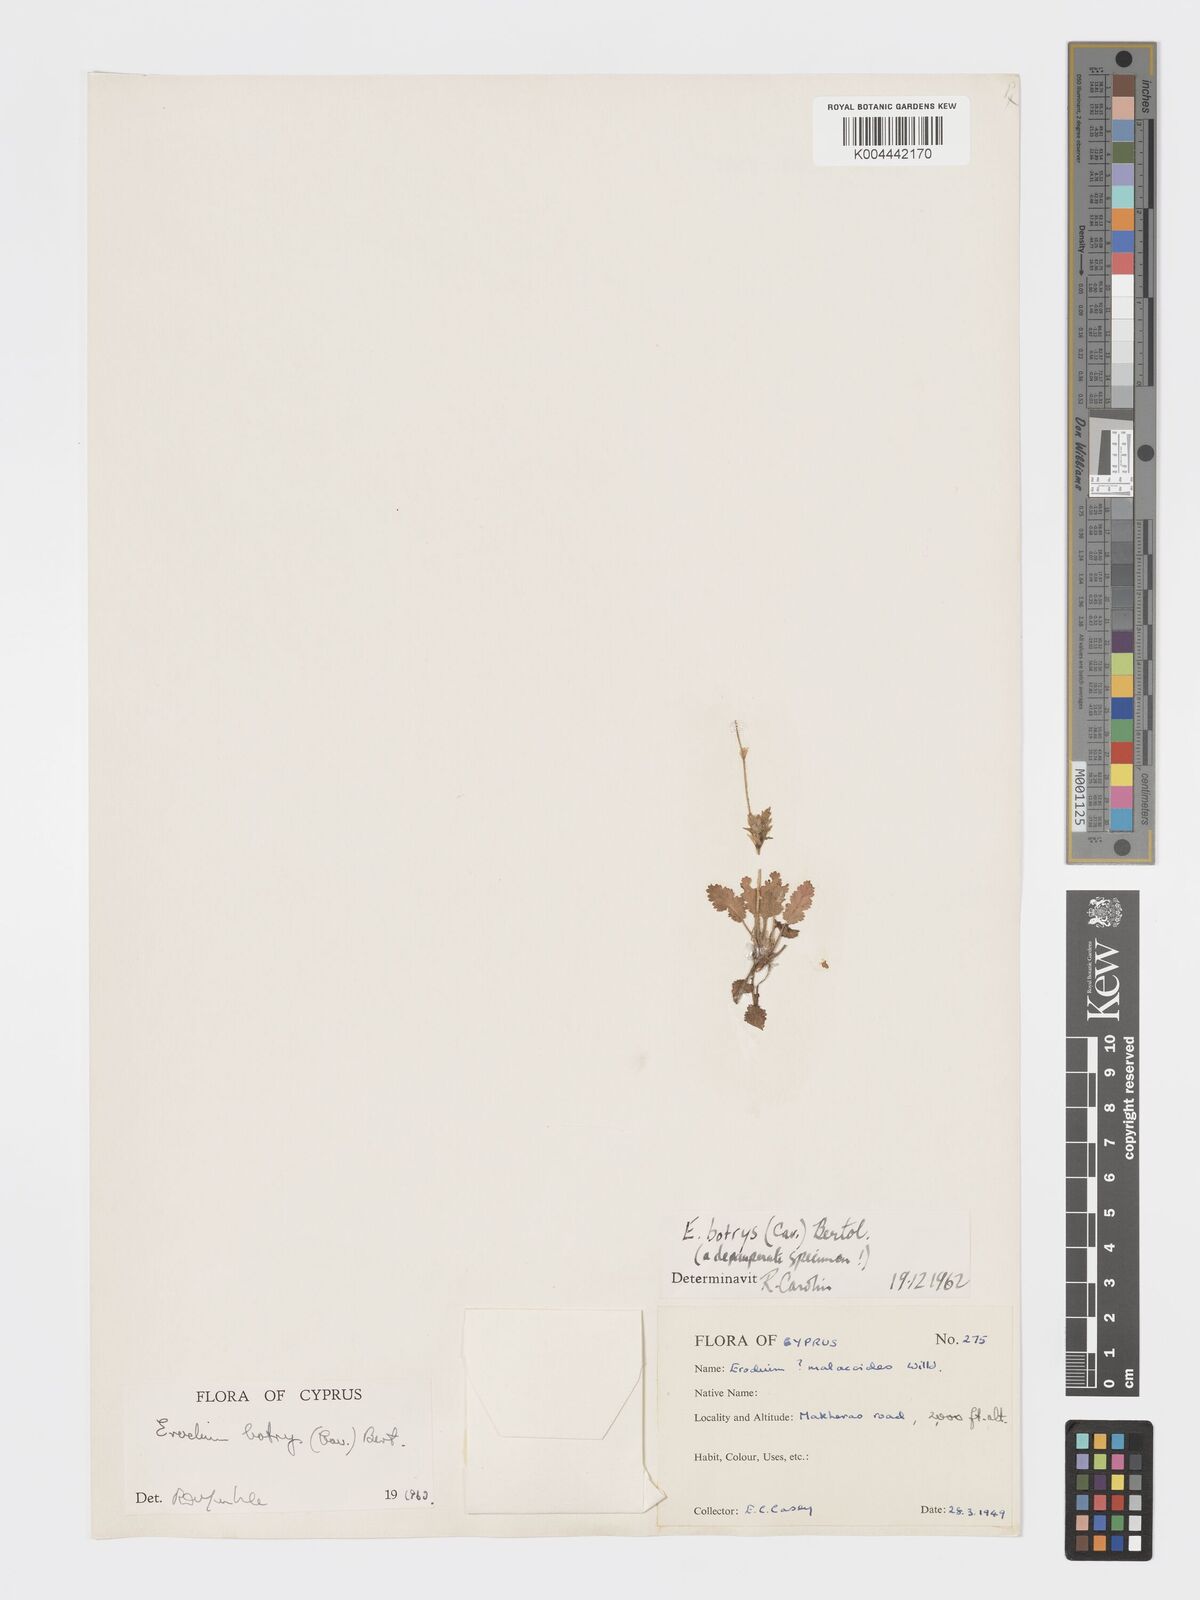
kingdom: Plantae
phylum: Tracheophyta
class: Magnoliopsida
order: Geraniales
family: Geraniaceae
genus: Erodium
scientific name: Erodium
